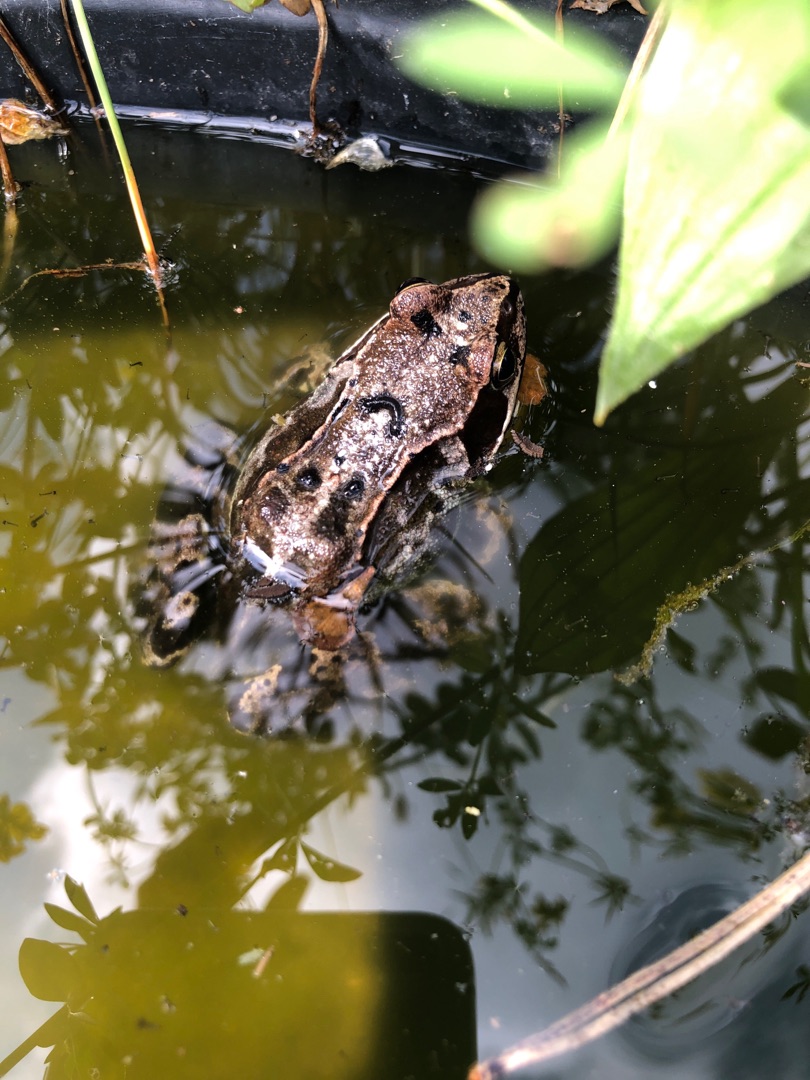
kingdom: Animalia
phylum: Chordata
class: Amphibia
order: Anura
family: Ranidae
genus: Rana
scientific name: Rana temporaria
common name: Butsnudet frø
